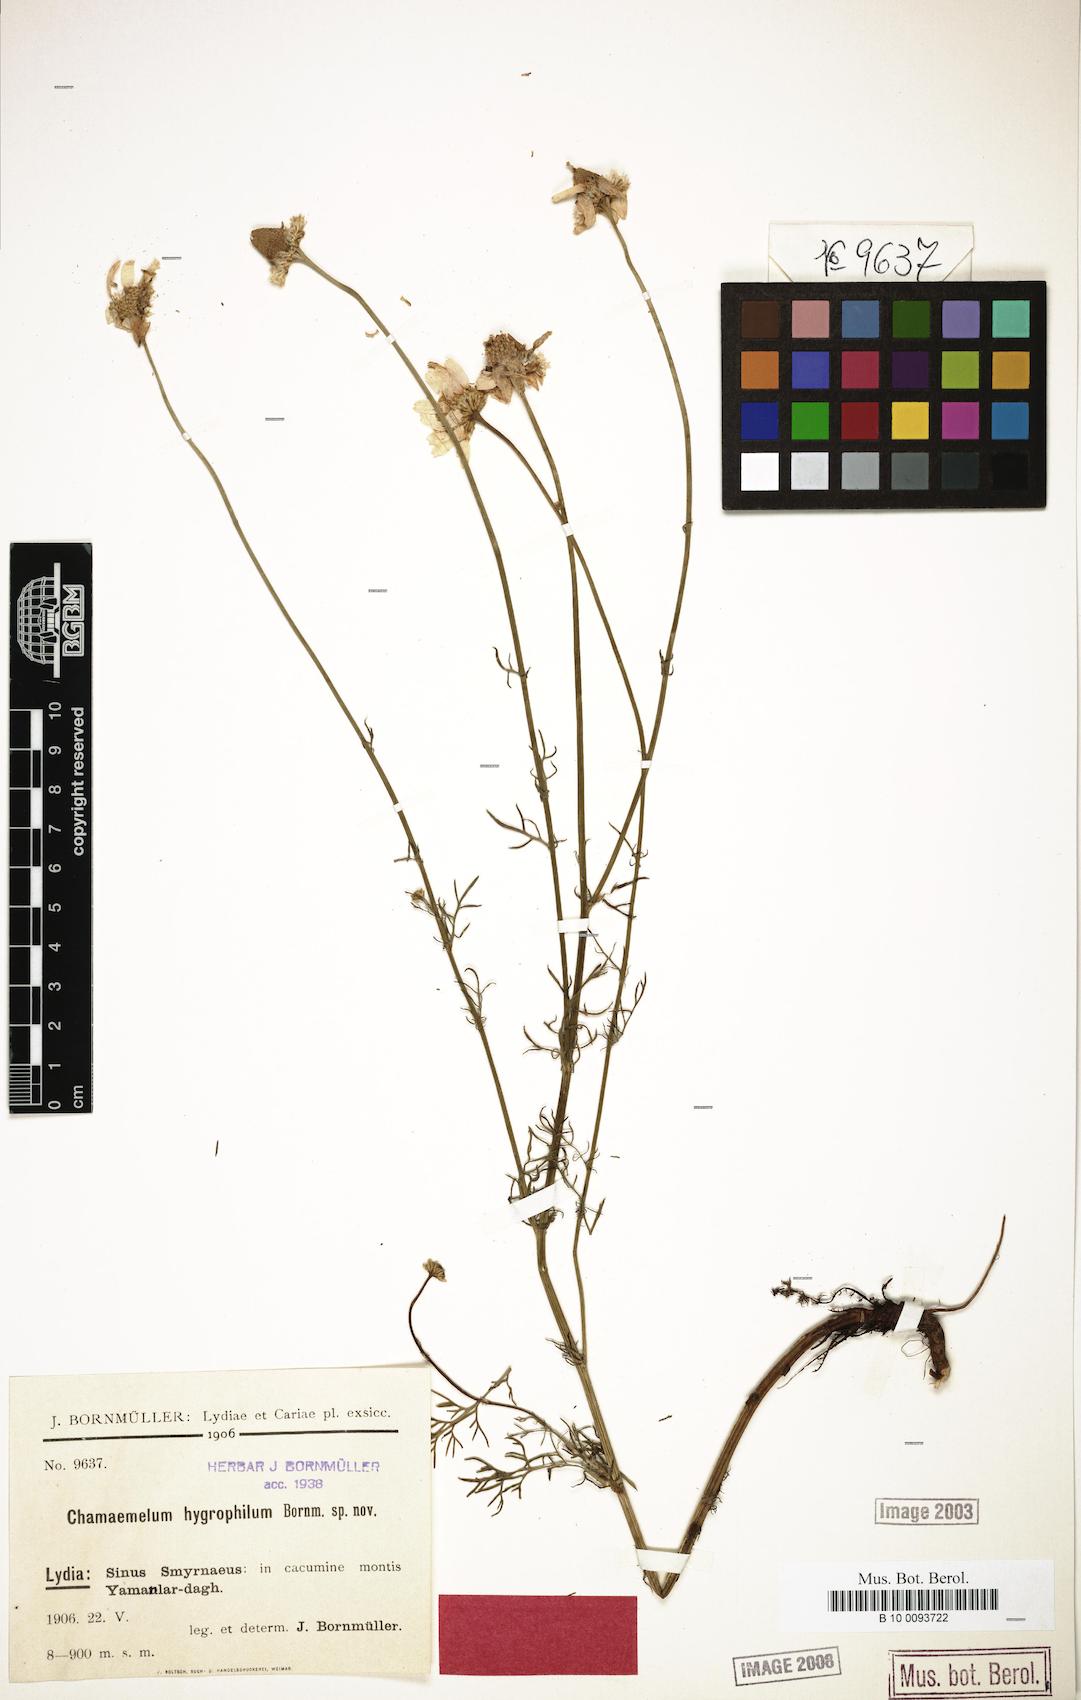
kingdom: Plantae
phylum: Tracheophyta
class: Magnoliopsida
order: Asterales
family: Asteraceae
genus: Tripleurospermum
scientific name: Tripleurospermum hygrophilum
